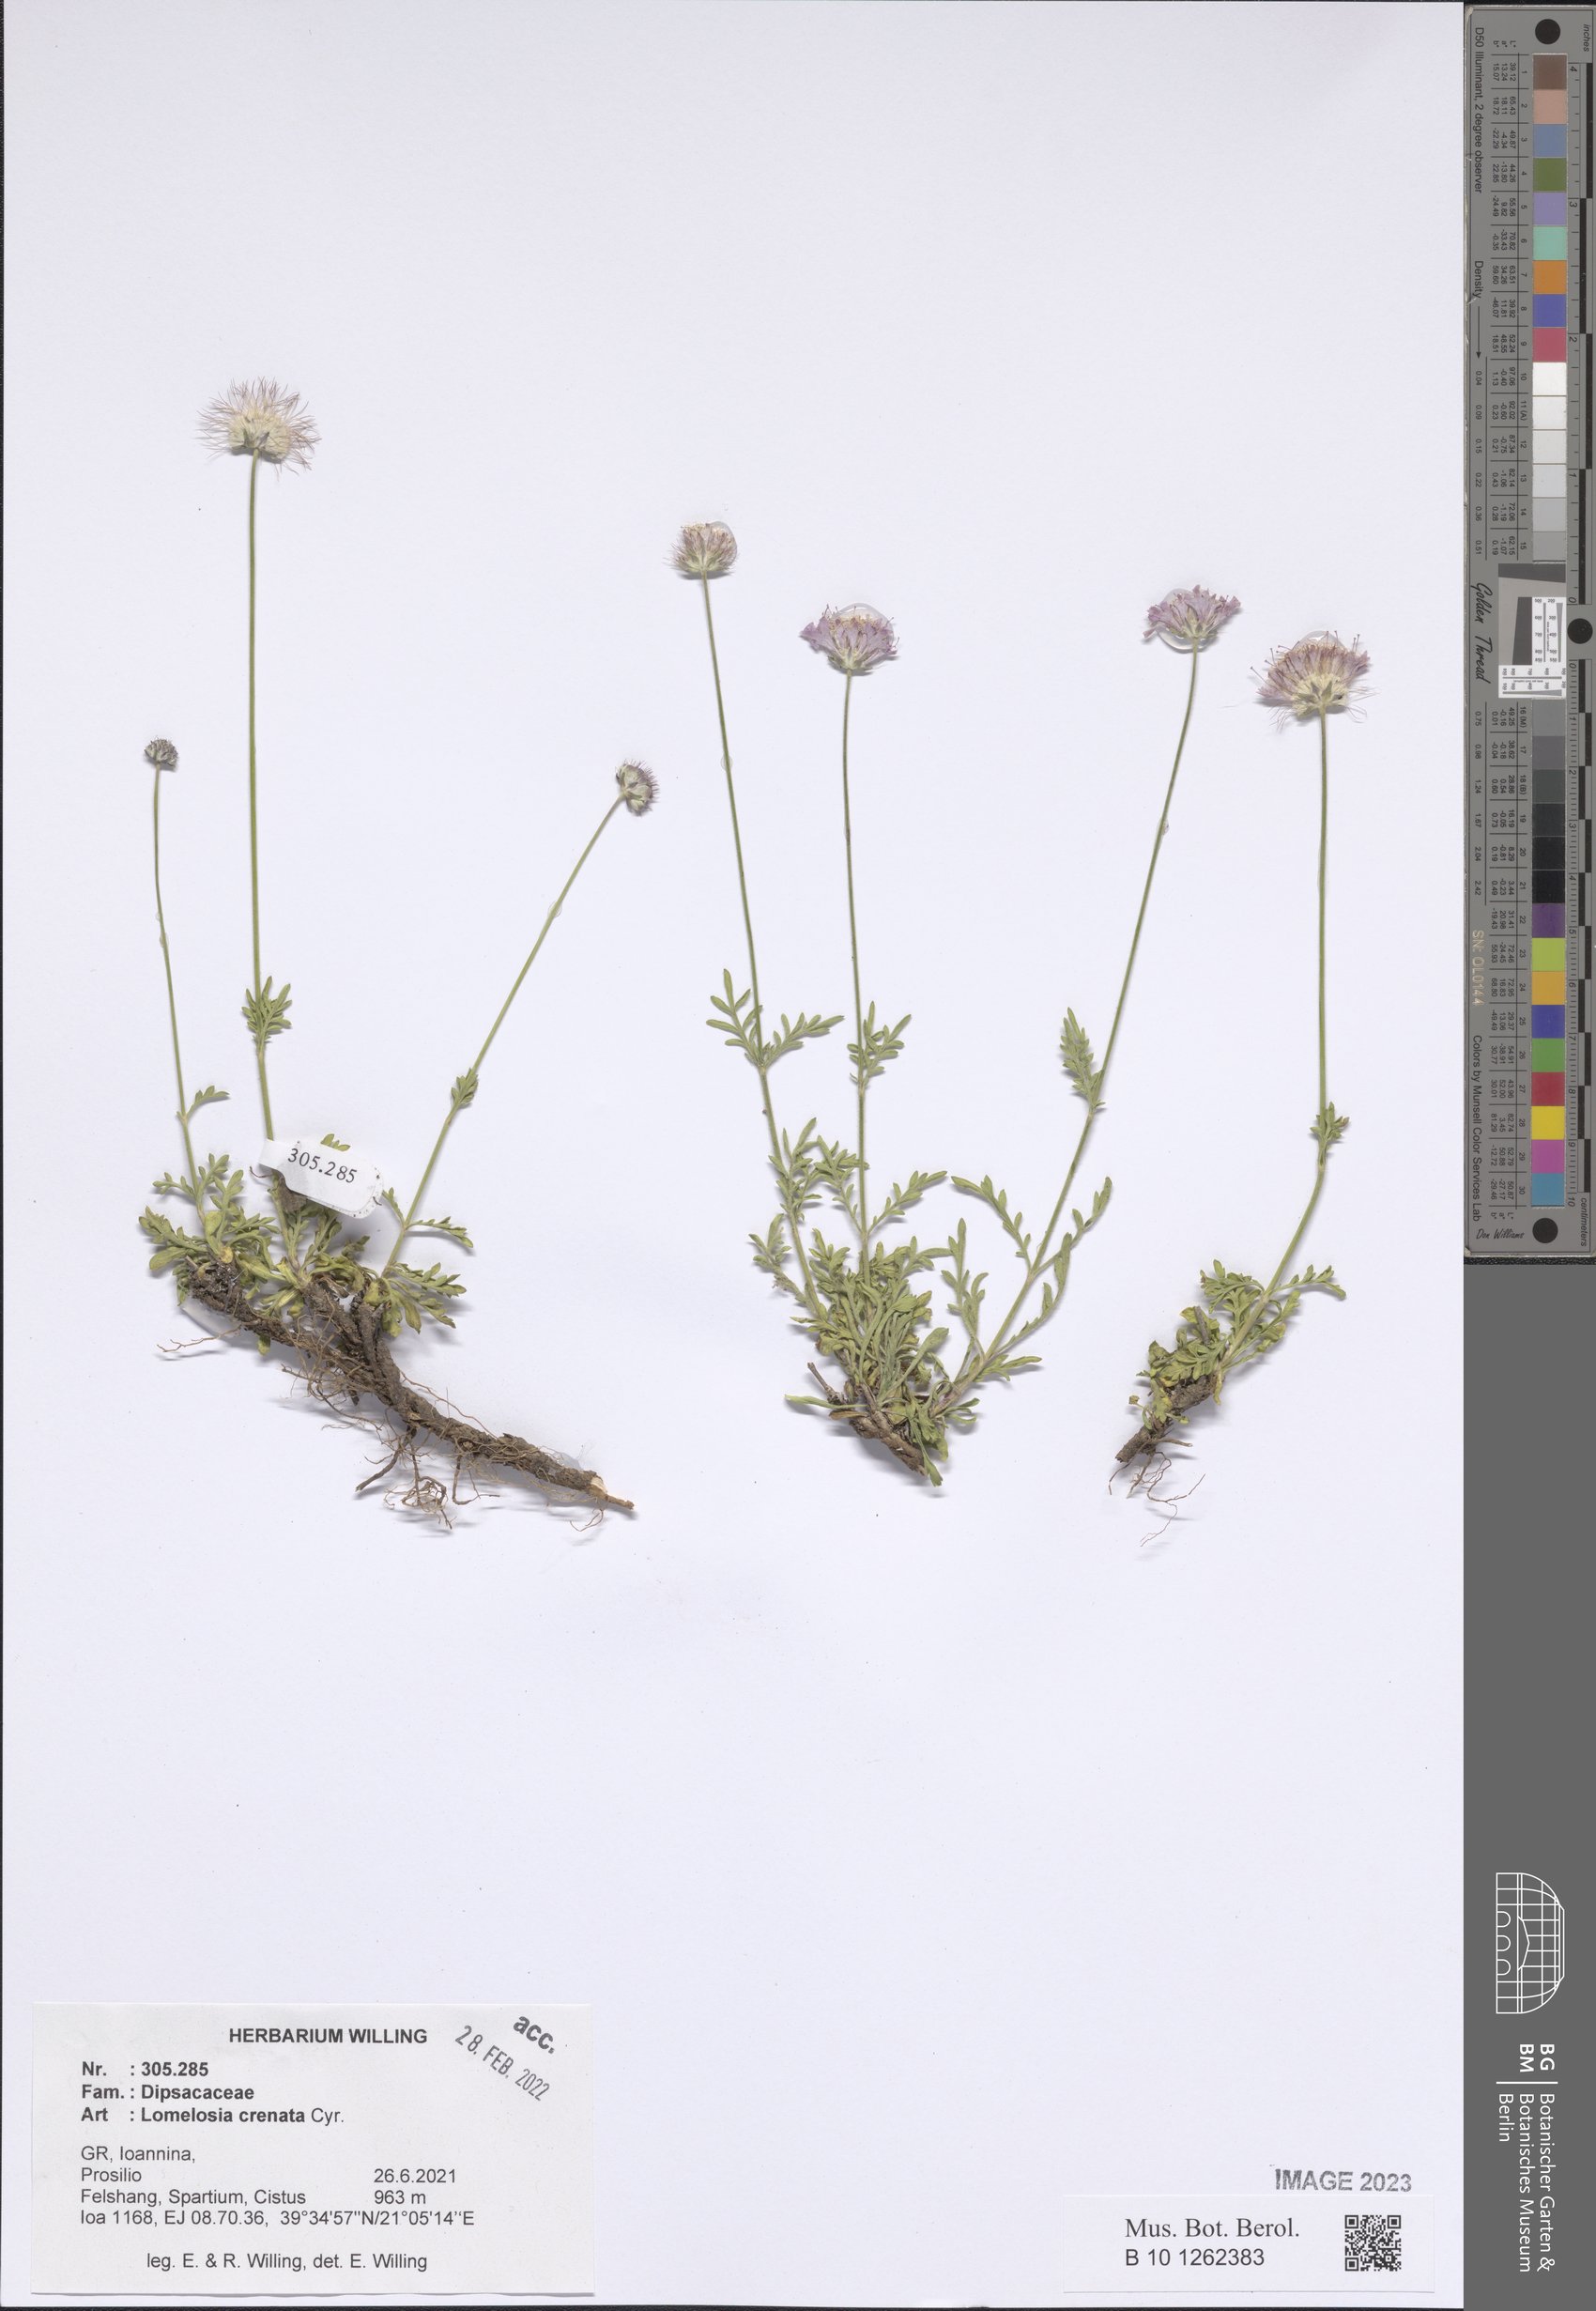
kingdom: Plantae
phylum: Tracheophyta
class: Magnoliopsida
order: Dipsacales
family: Caprifoliaceae
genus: Lomelosia
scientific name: Lomelosia crenata
